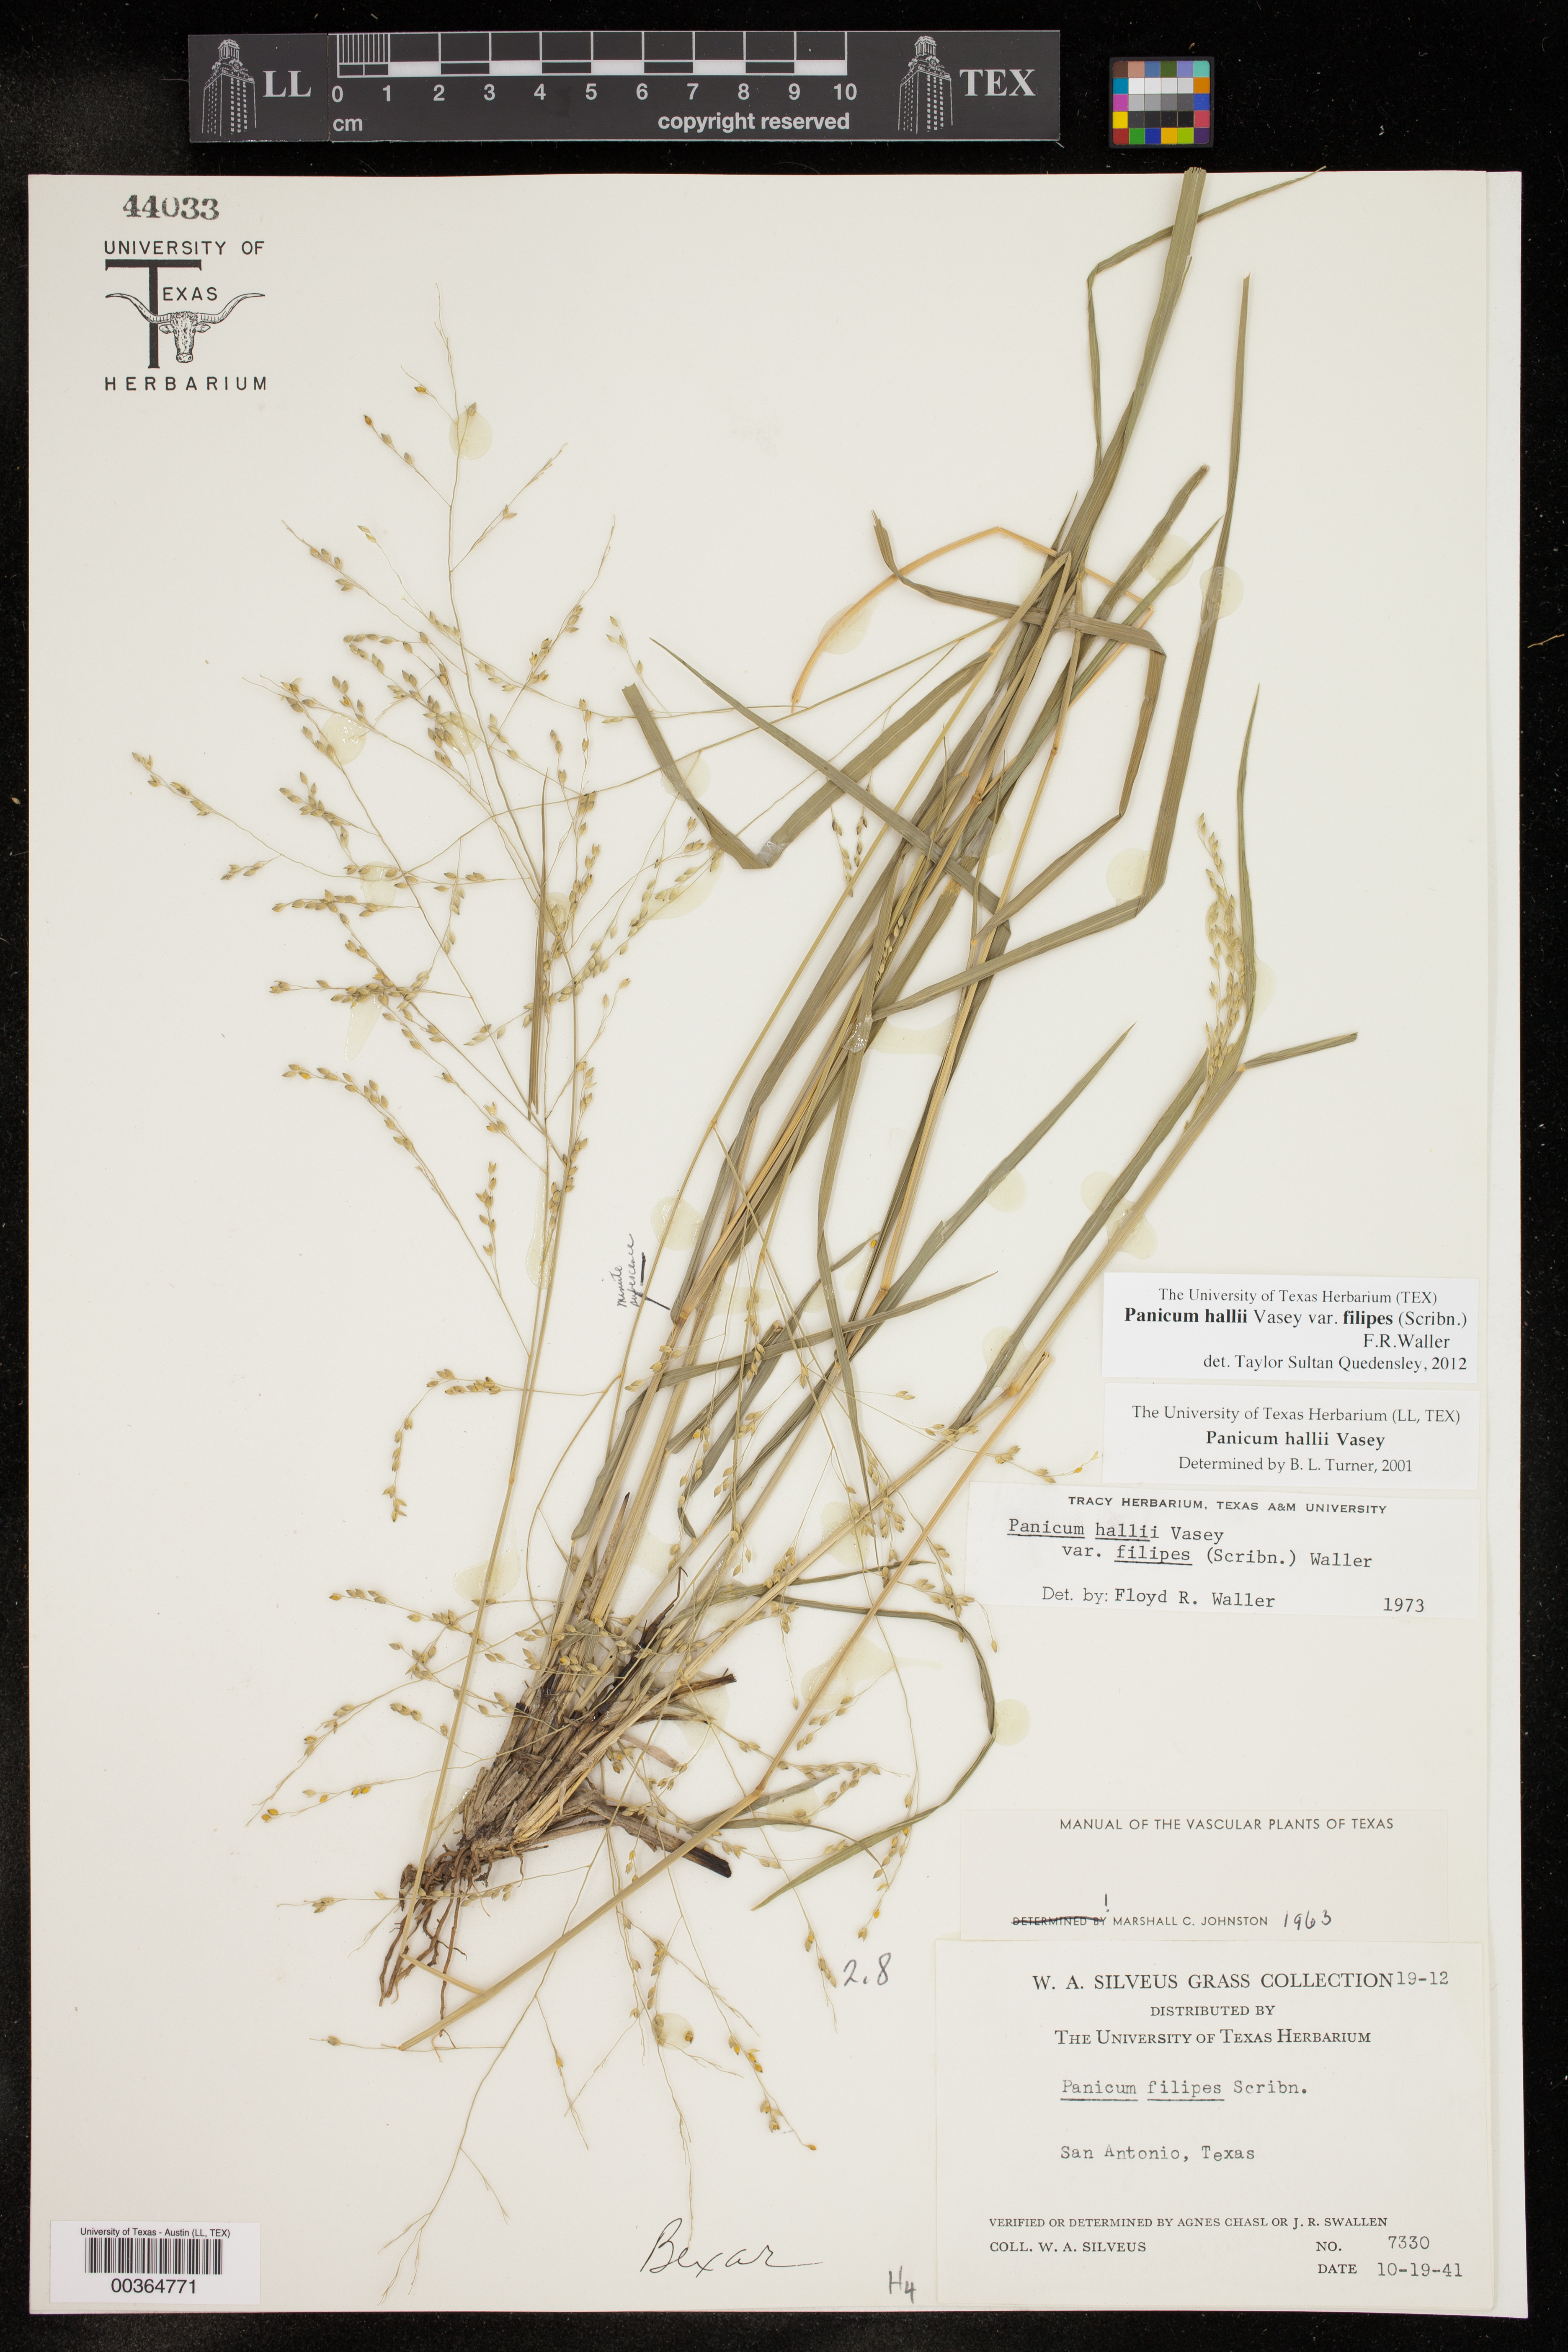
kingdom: Plantae
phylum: Tracheophyta
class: Liliopsida
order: Poales
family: Poaceae
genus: Panicum
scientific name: Panicum hallii
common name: Hall's witchgrass
